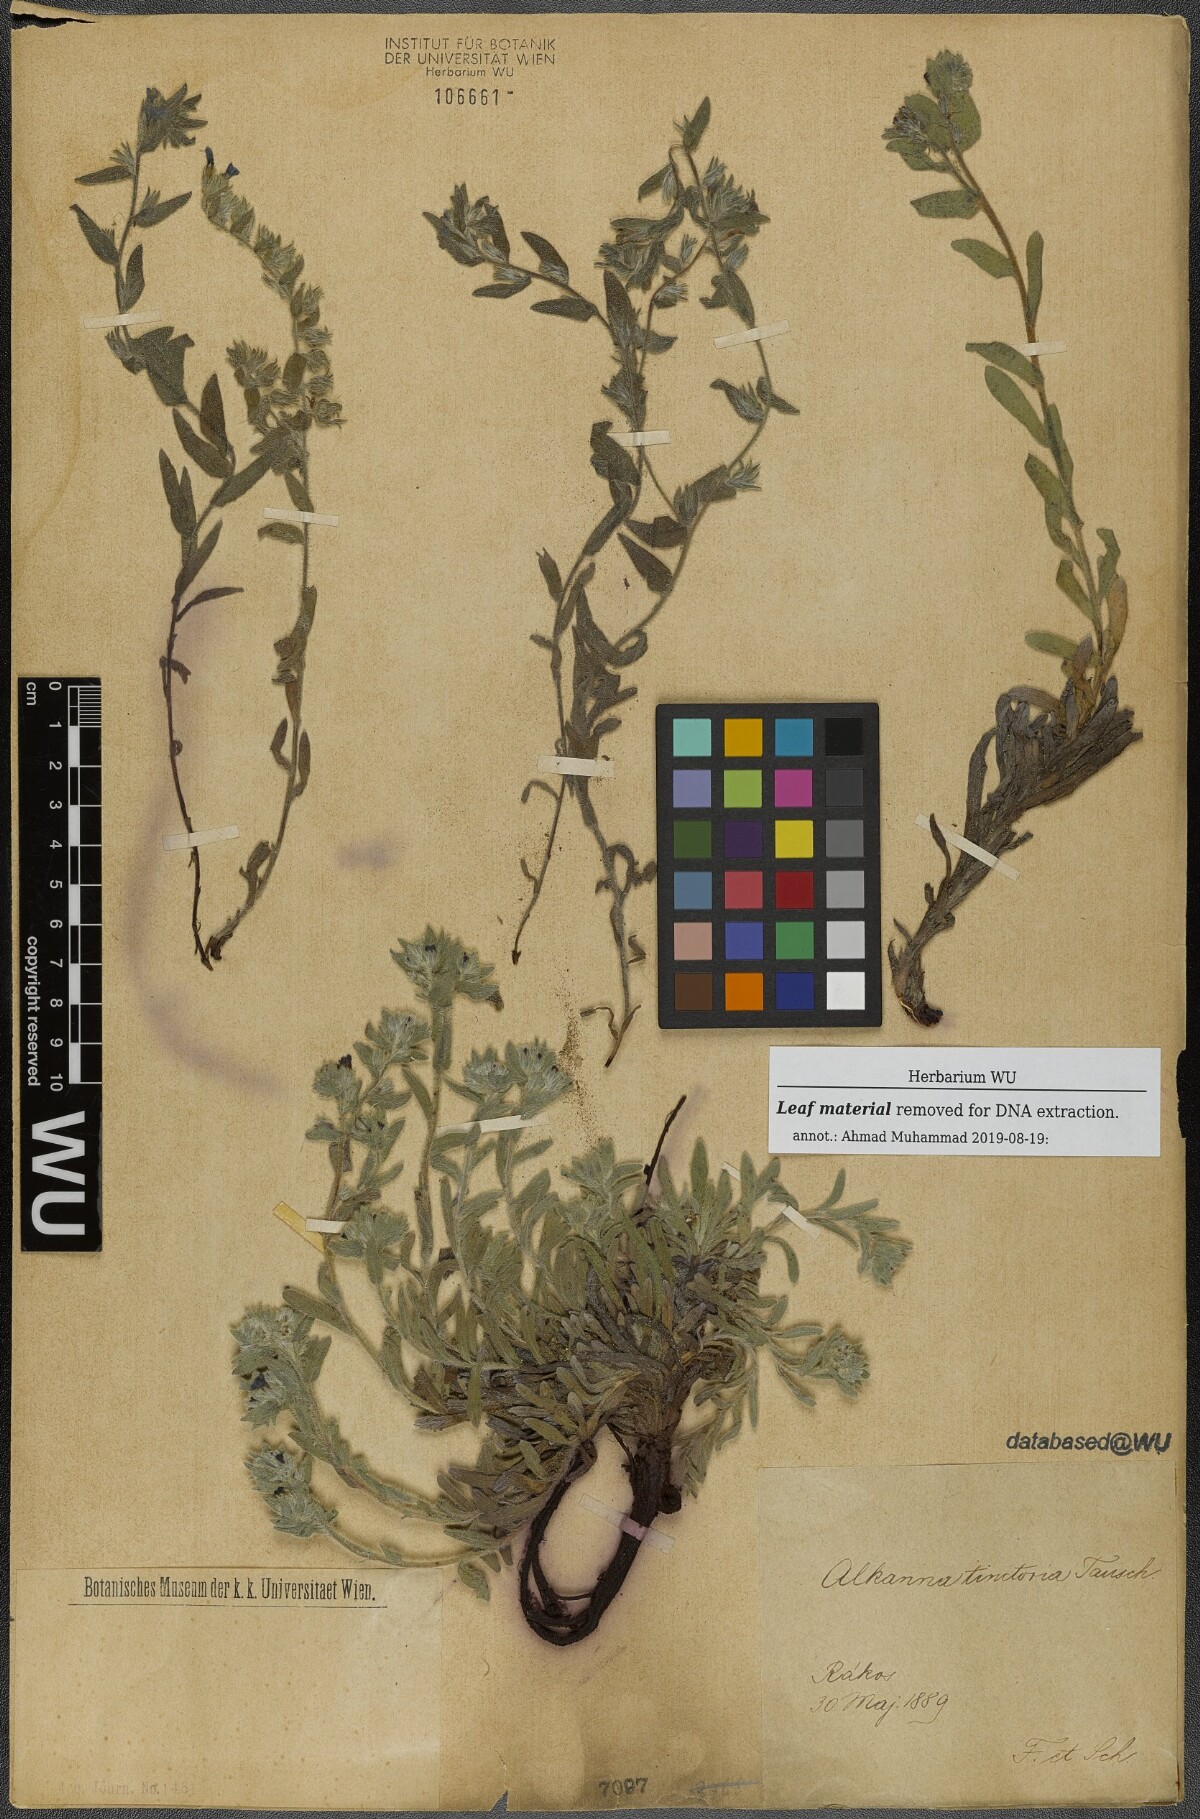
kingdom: Plantae
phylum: Tracheophyta
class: Magnoliopsida
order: Boraginales
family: Boraginaceae
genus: Alkanna
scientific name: Alkanna tinctoria
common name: Dyer's-alkanet
